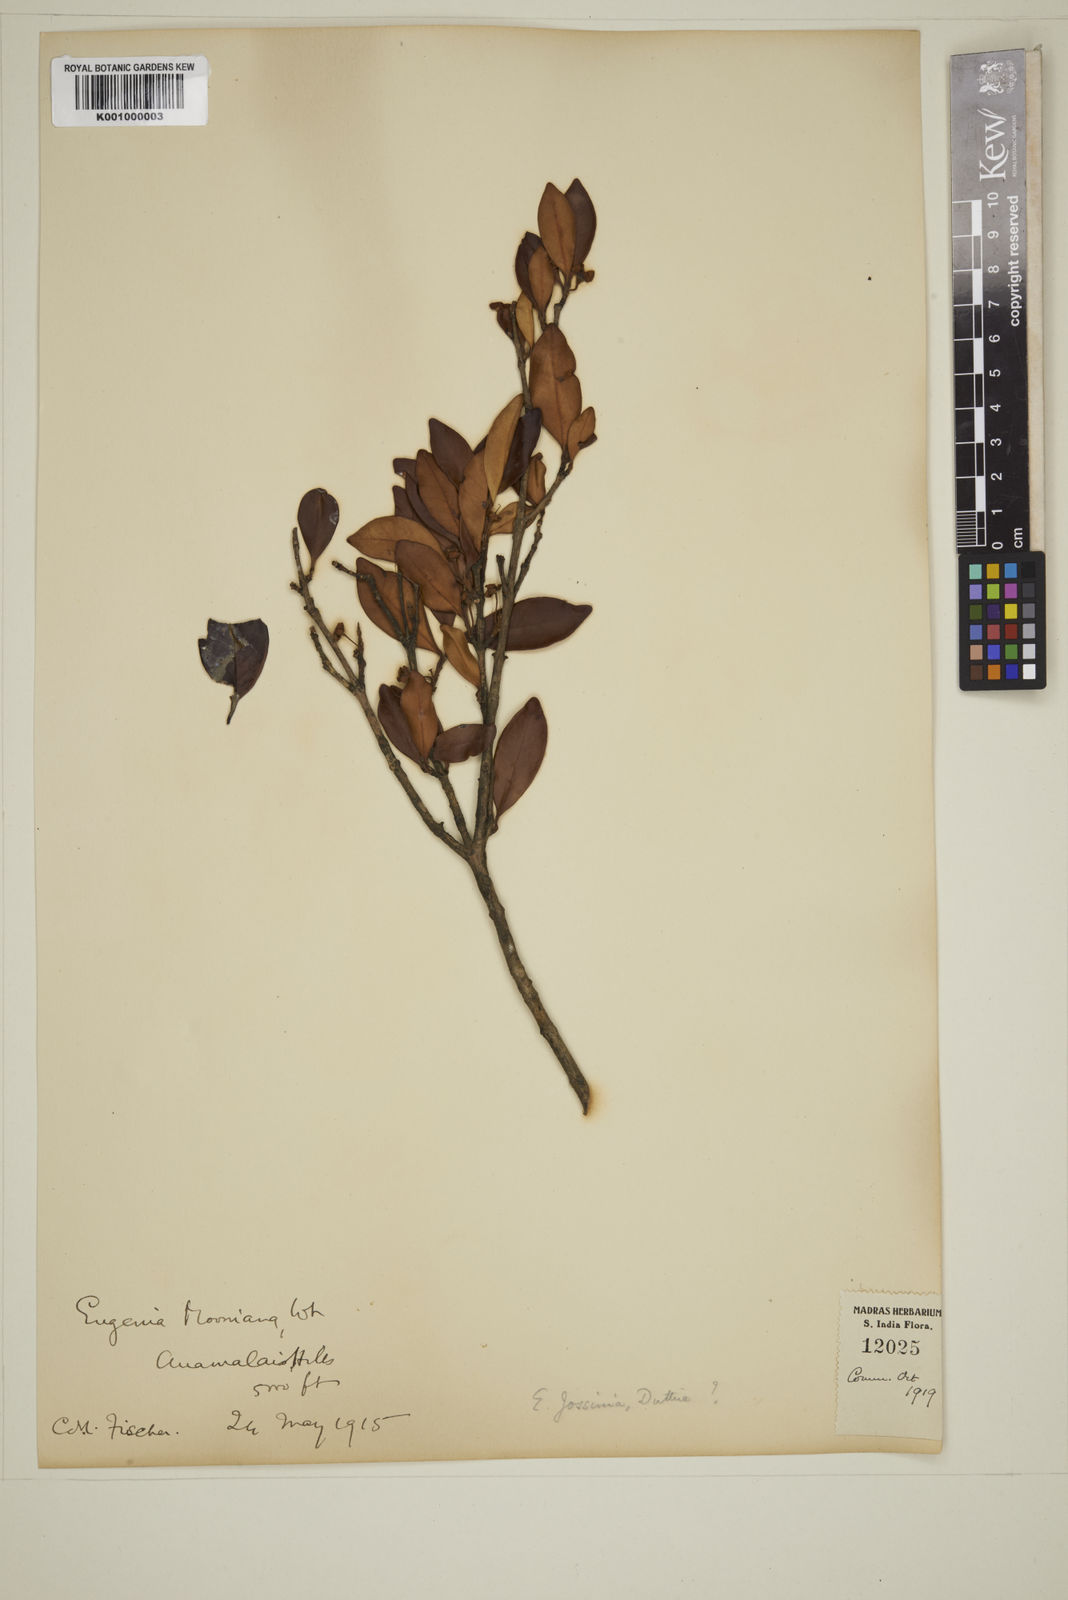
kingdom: Plantae
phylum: Tracheophyta
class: Magnoliopsida
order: Myrtales
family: Myrtaceae
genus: Eugenia
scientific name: Eugenia indica
